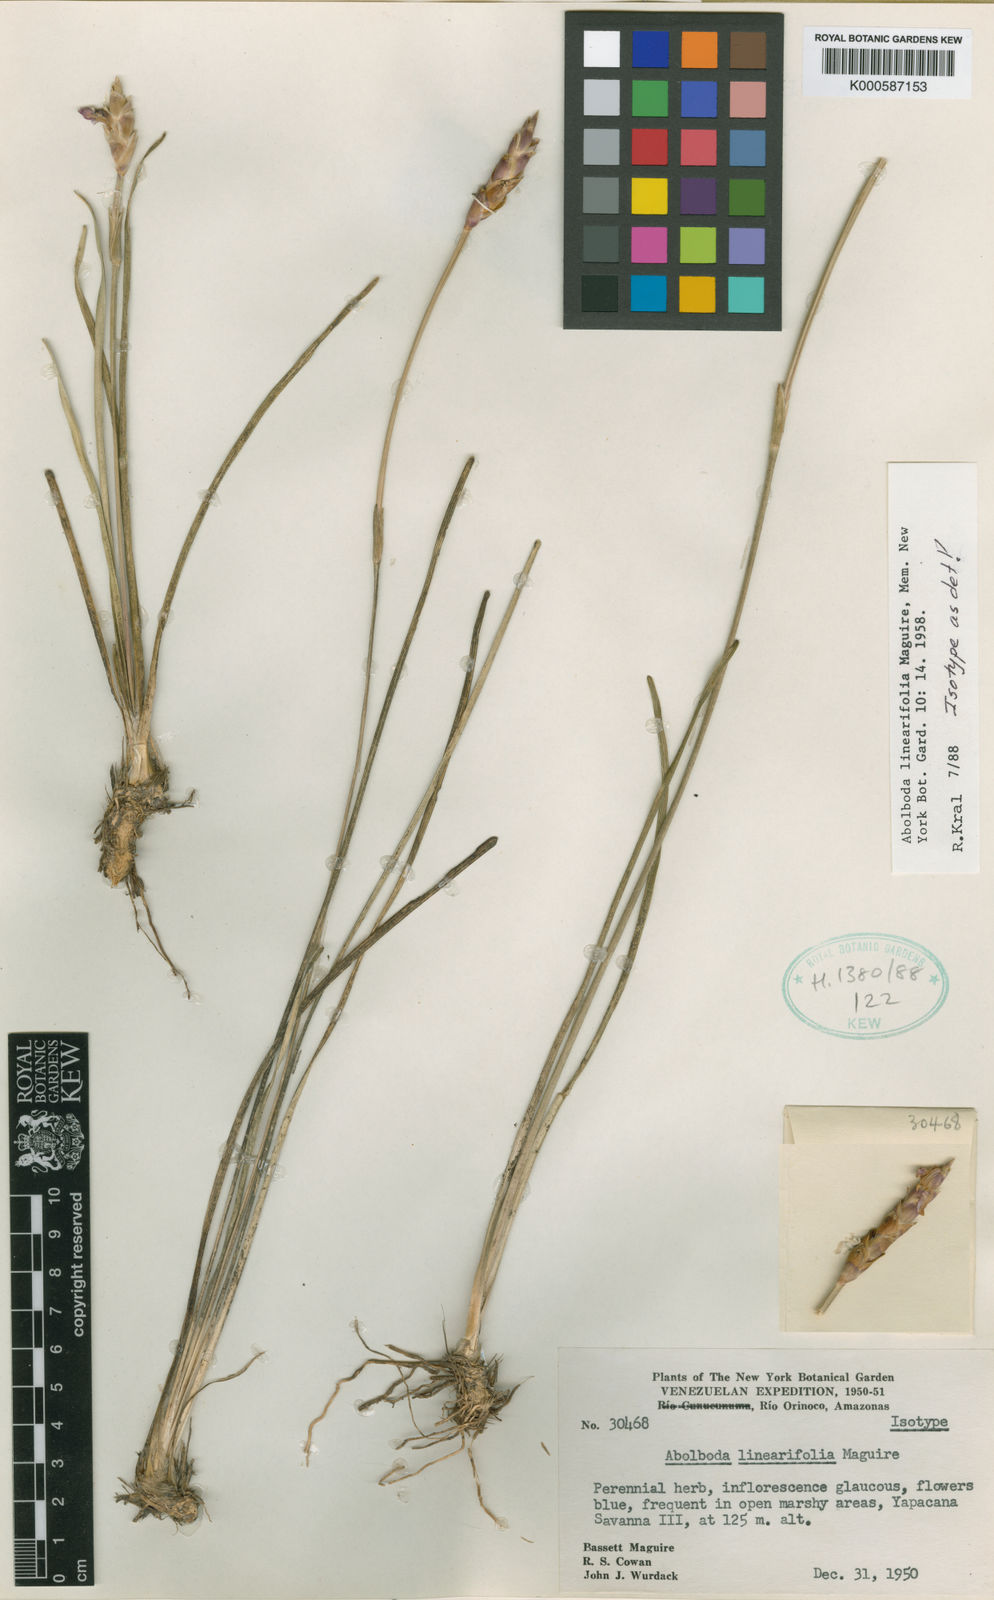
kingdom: Plantae
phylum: Tracheophyta
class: Liliopsida
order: Poales
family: Xyridaceae
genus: Abolboda
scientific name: Abolboda linearifolia
